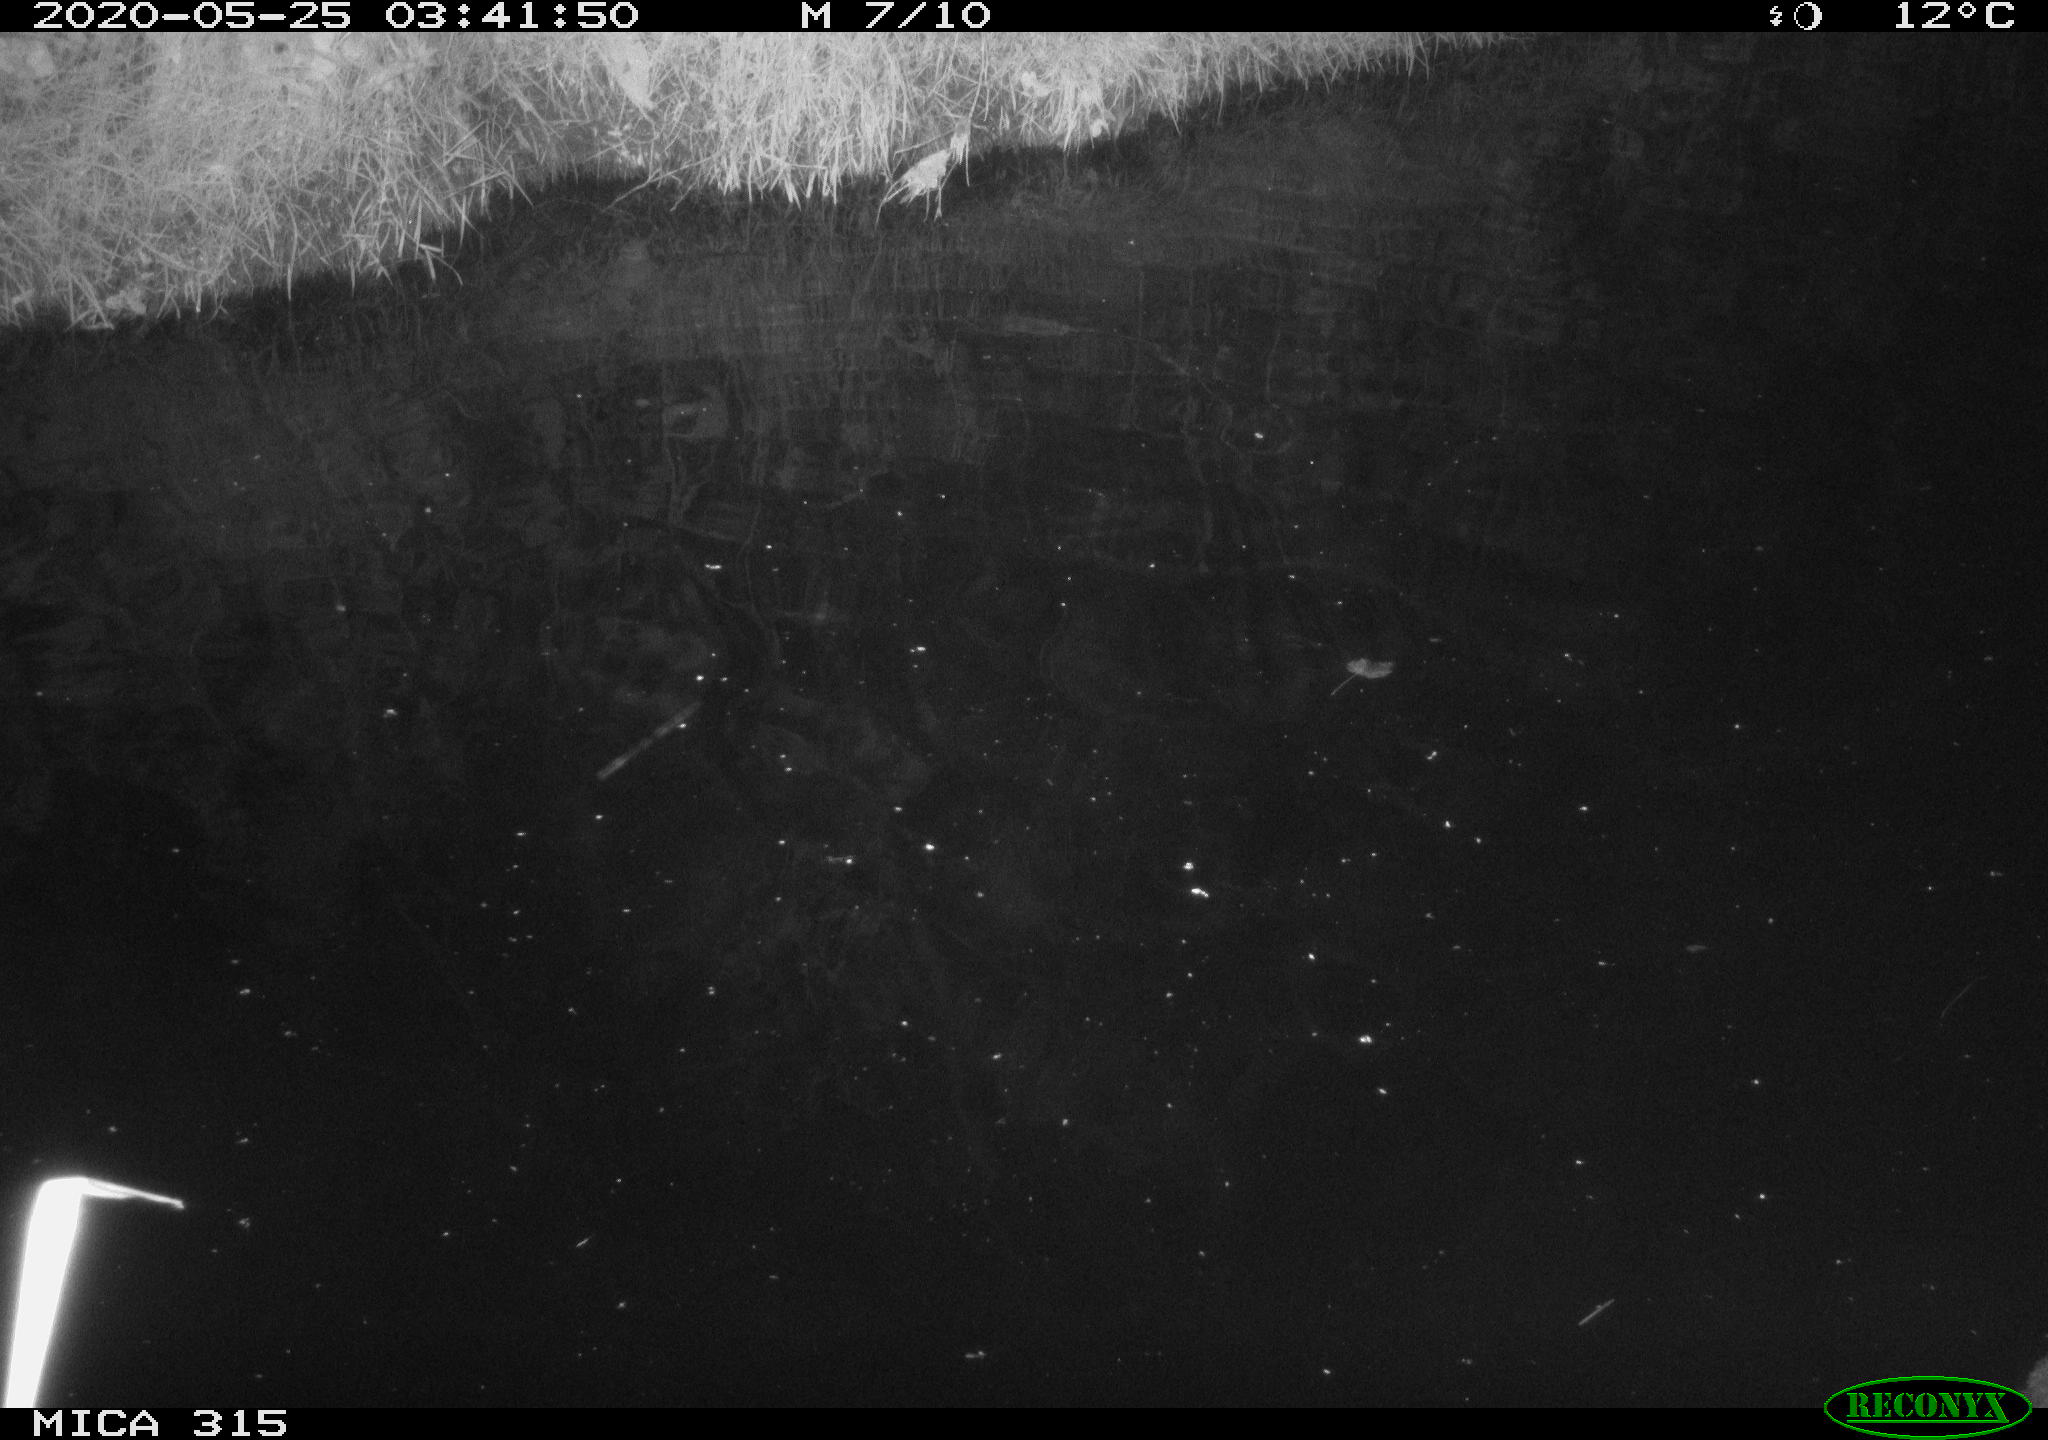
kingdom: Animalia
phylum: Chordata
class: Aves
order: Anseriformes
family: Anatidae
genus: Anas
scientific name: Anas platyrhynchos
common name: Mallard
